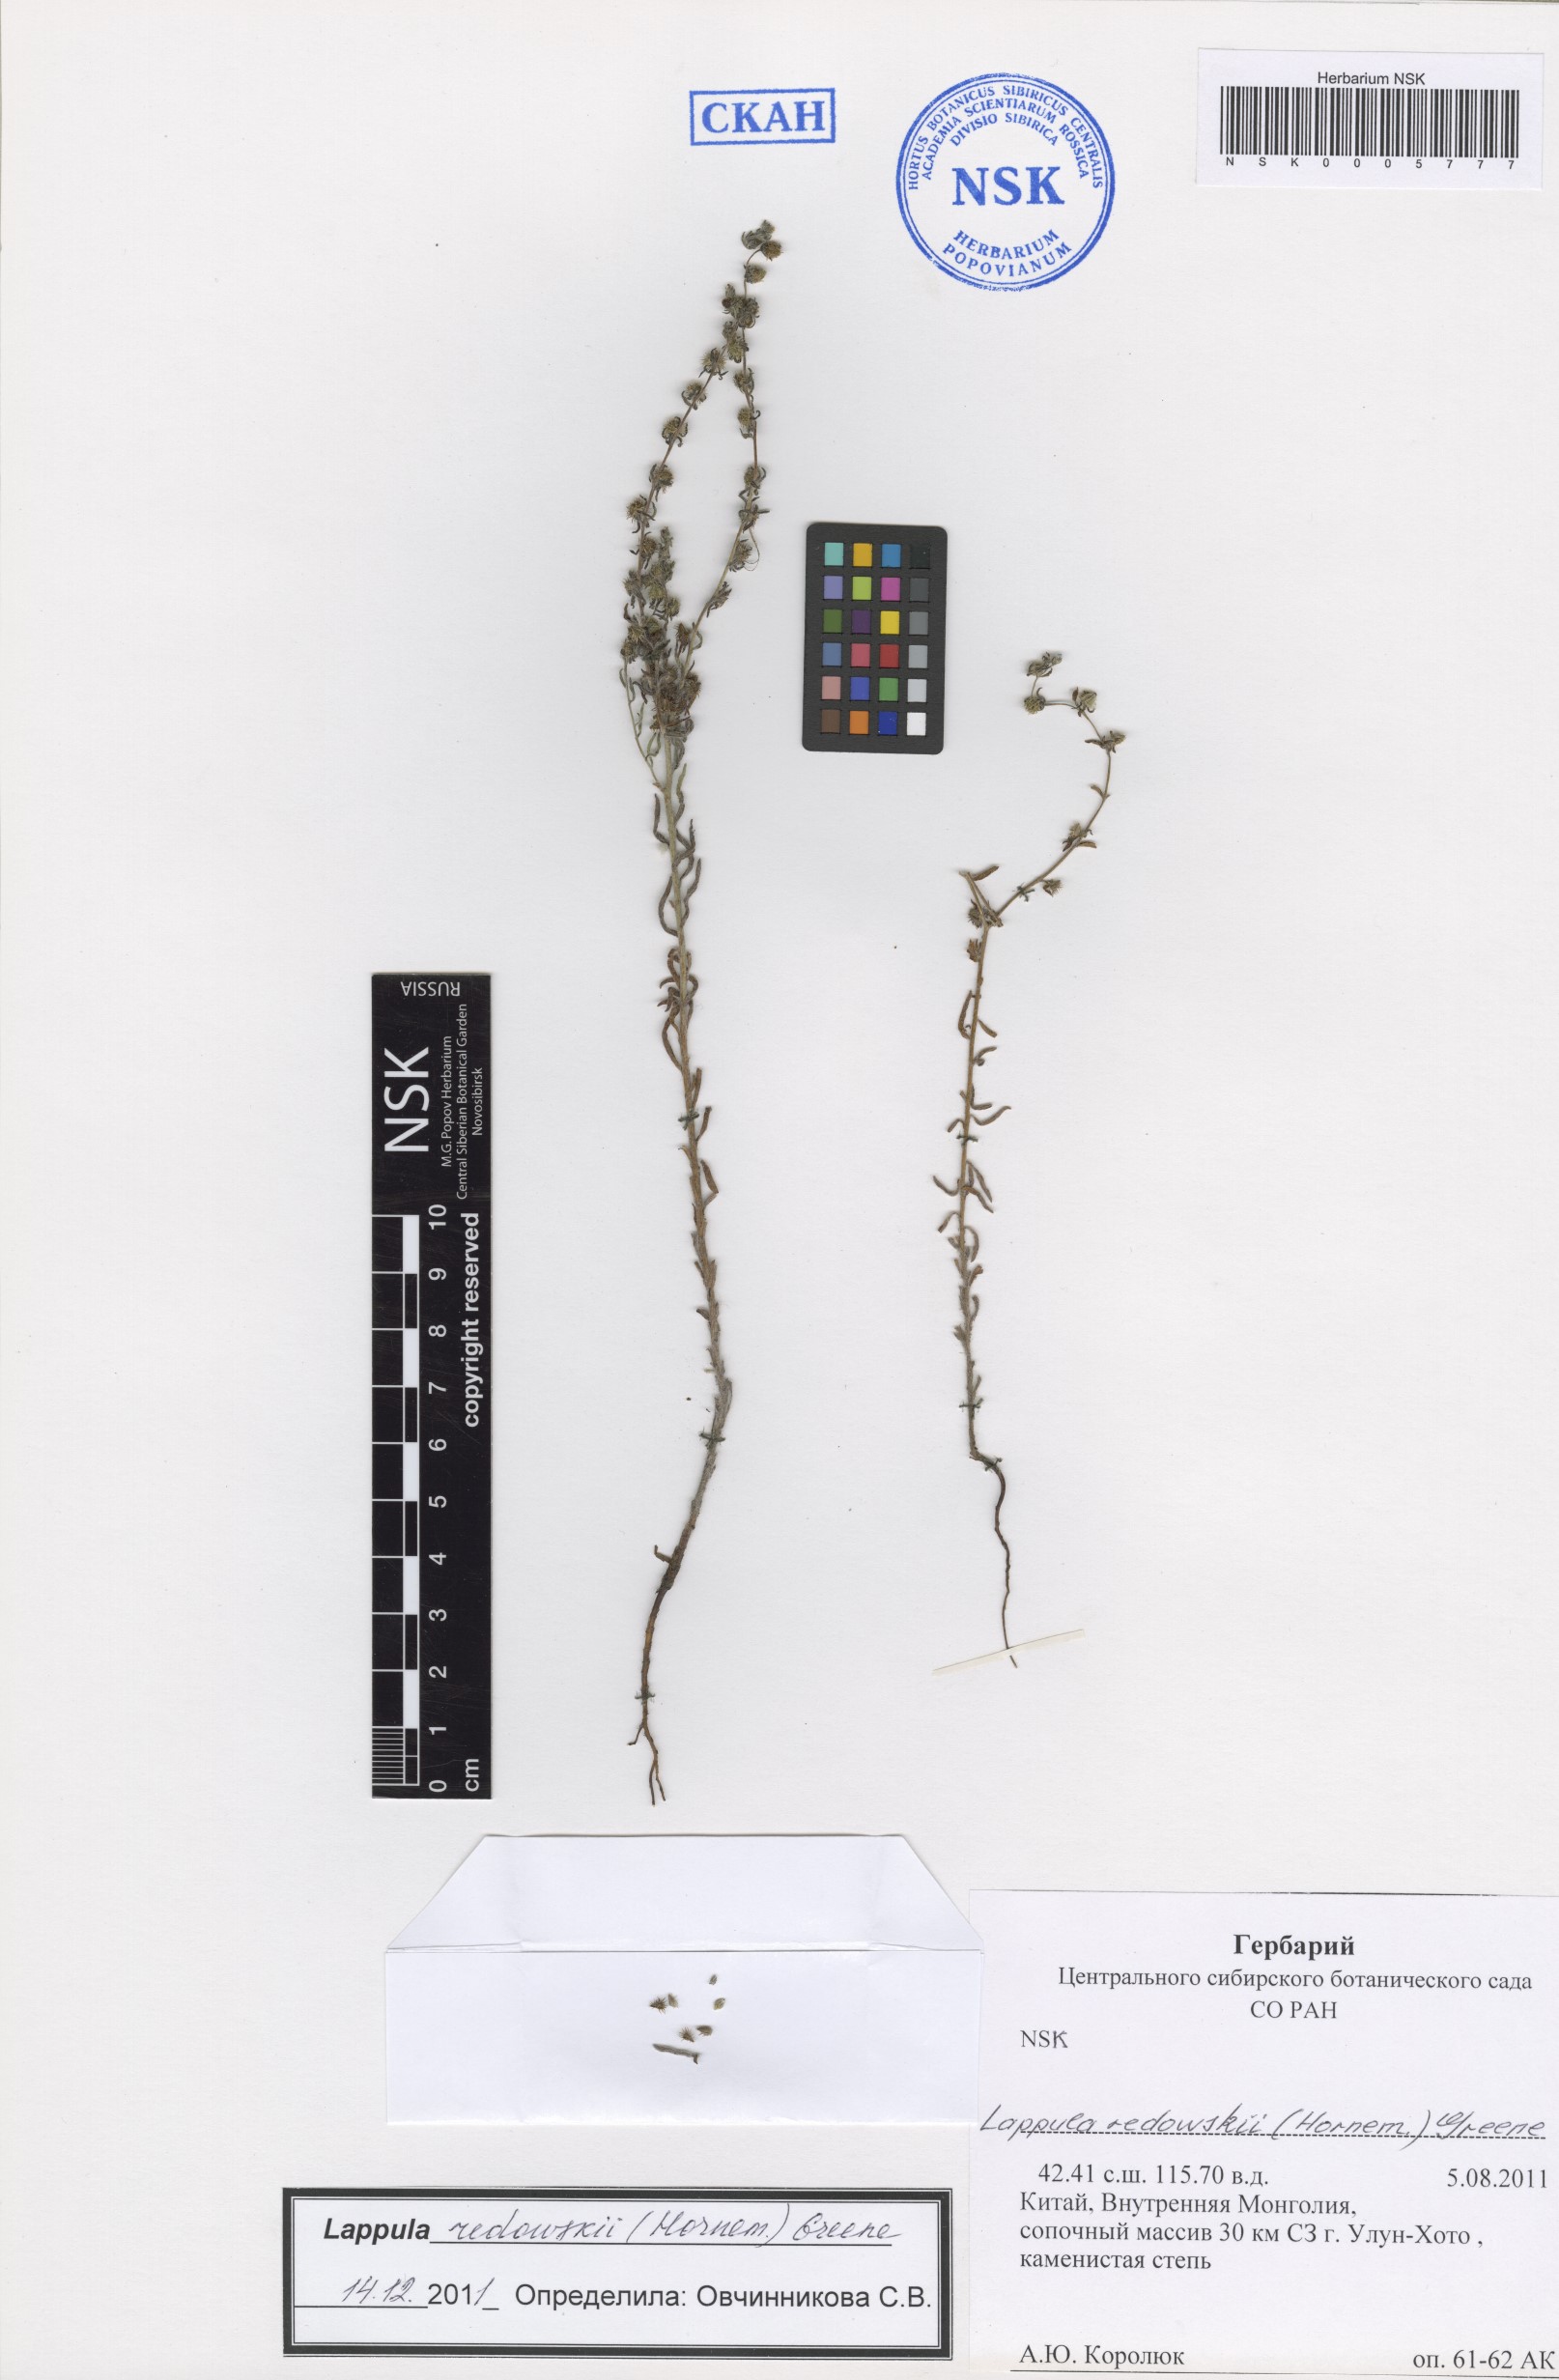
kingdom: Plantae
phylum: Tracheophyta
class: Magnoliopsida
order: Boraginales
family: Boraginaceae
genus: Lappula
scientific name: Lappula redowskii
